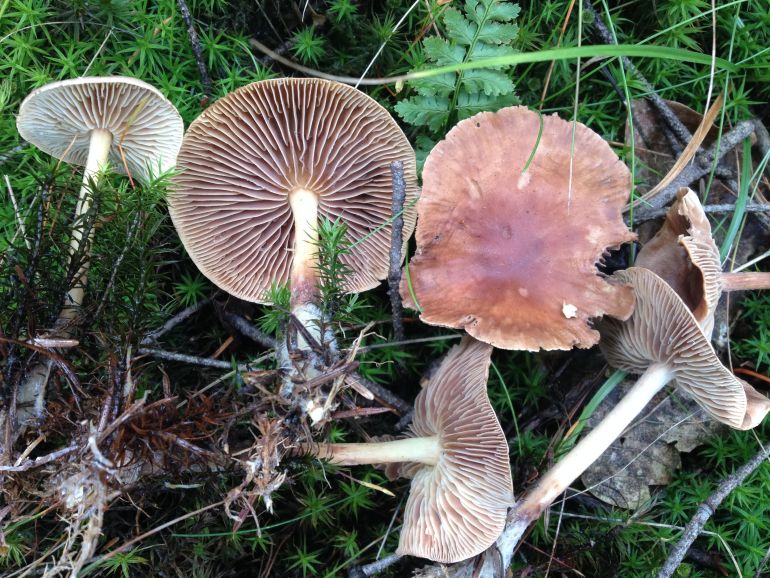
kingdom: Fungi
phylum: Basidiomycota
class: Agaricomycetes
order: Agaricales
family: Omphalotaceae
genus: Collybiopsis
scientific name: Collybiopsis peronata
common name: bestøvlet fladhat
